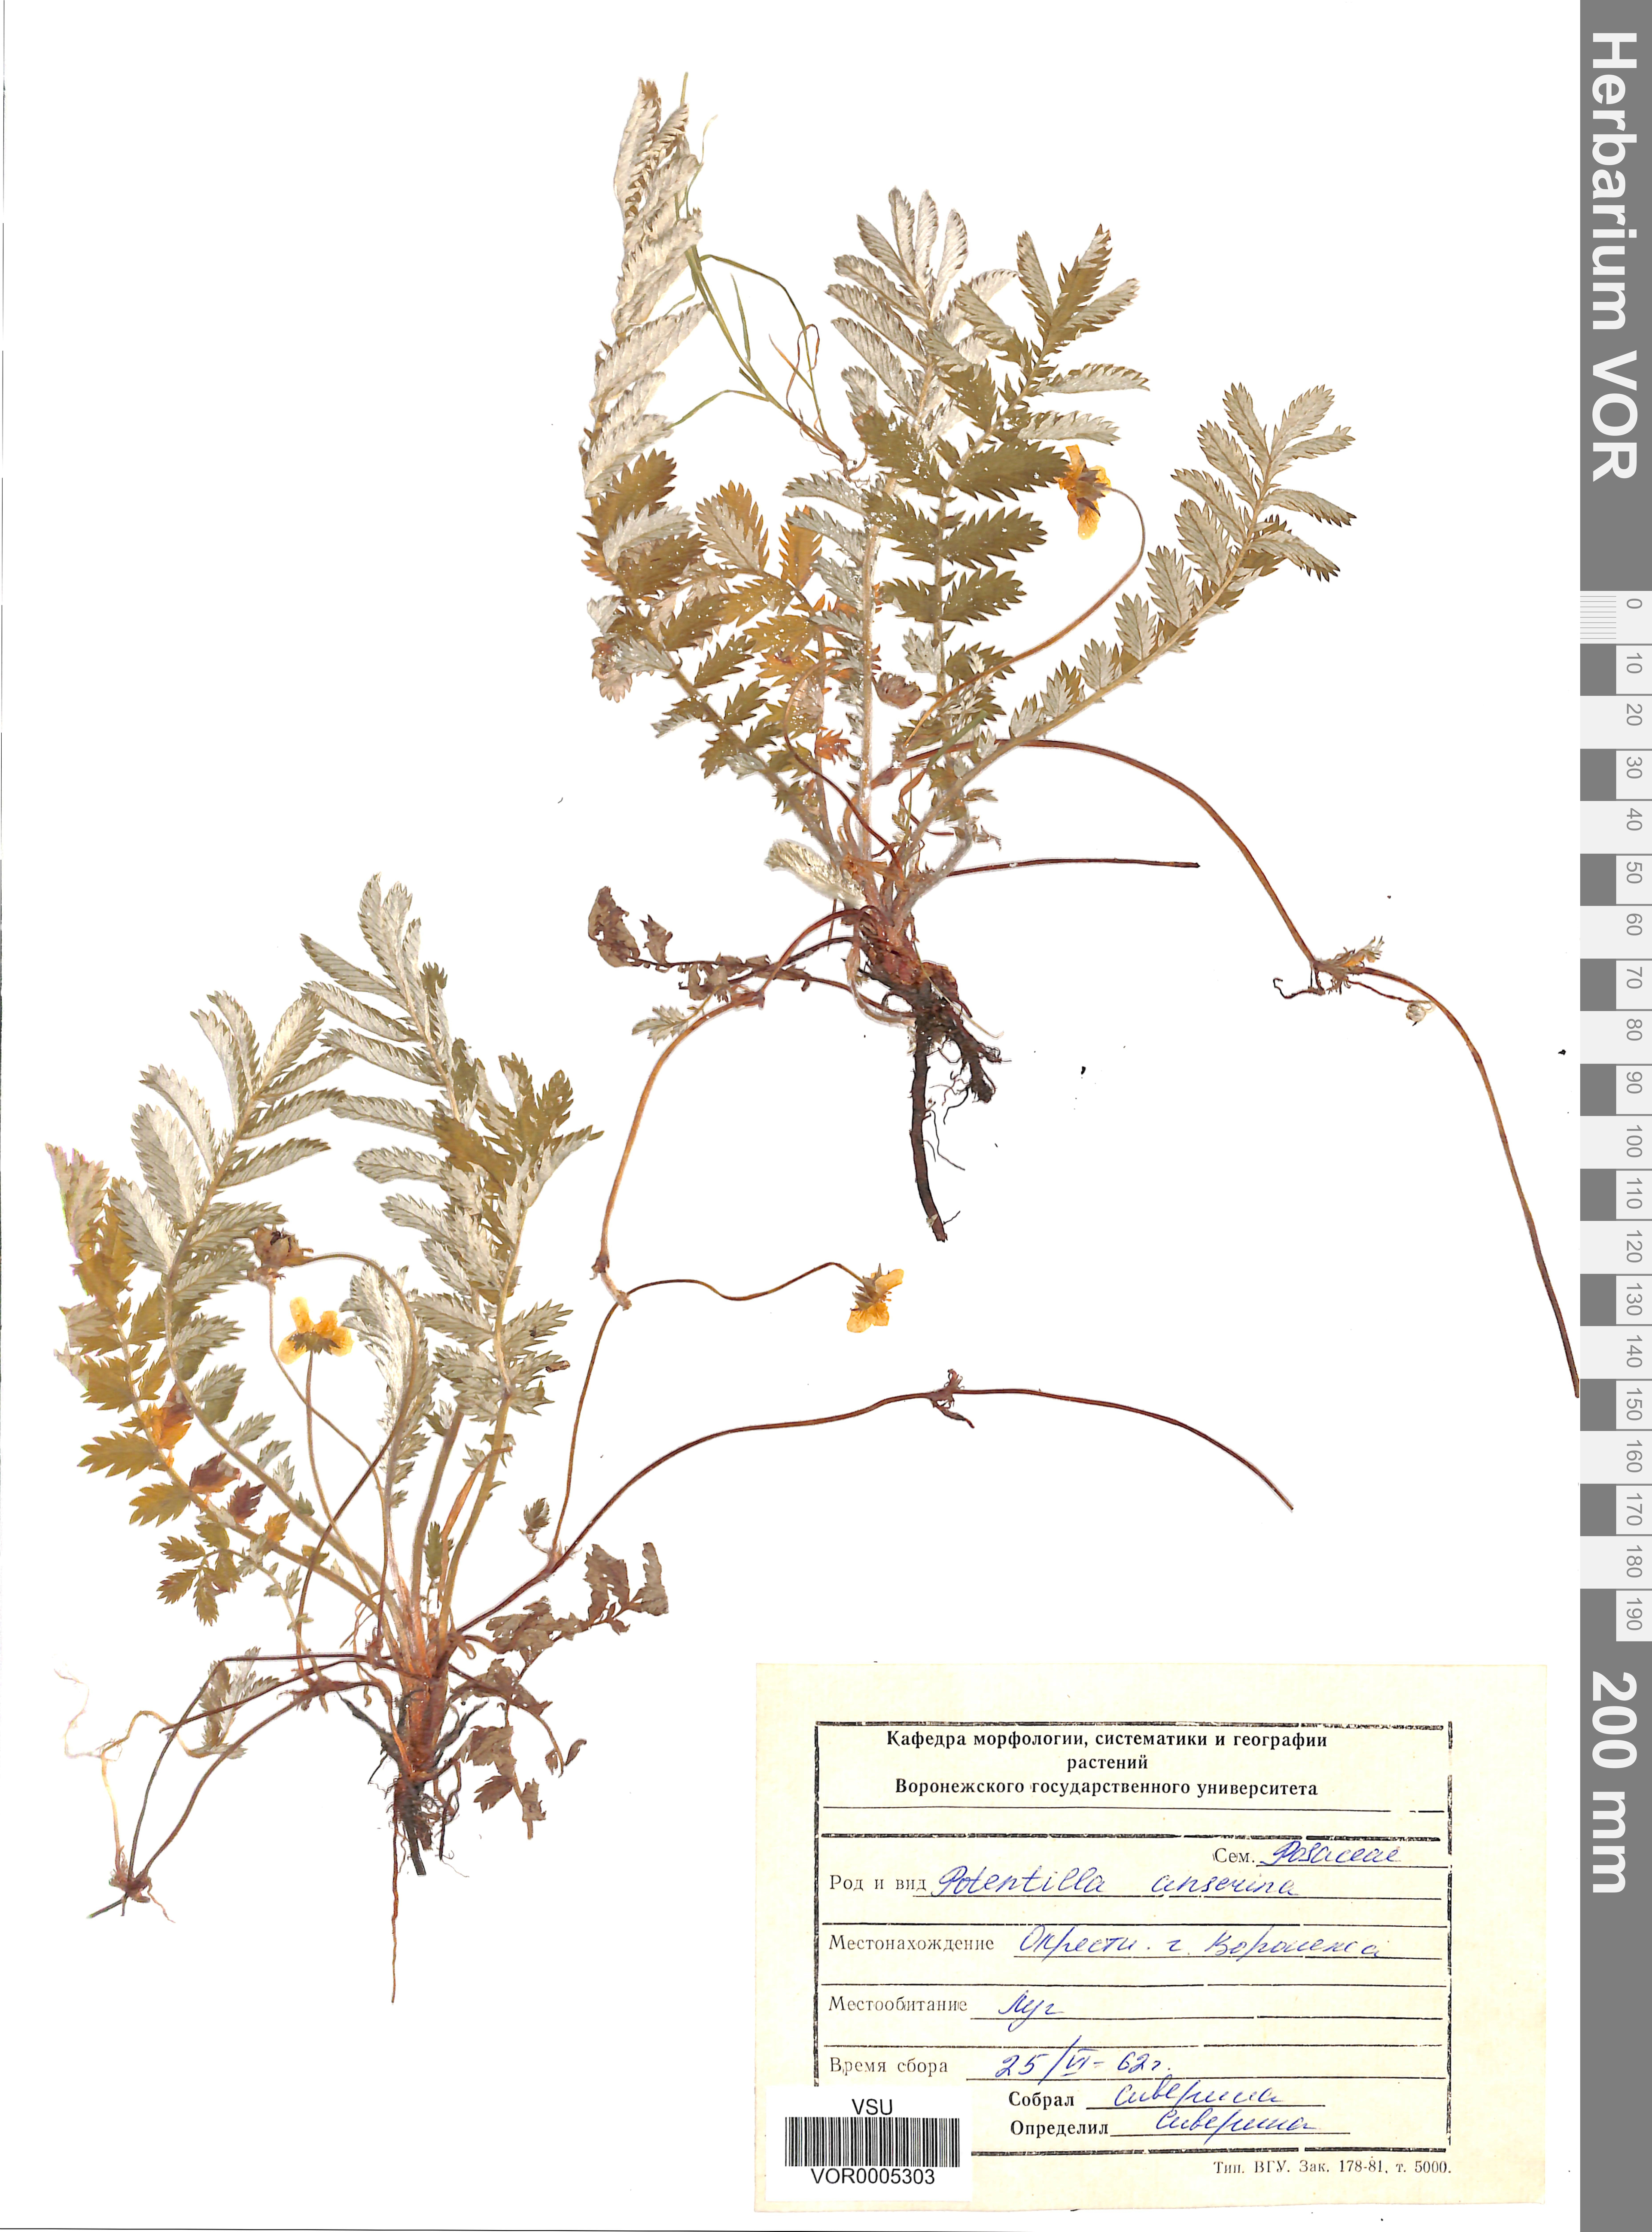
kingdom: Plantae
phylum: Tracheophyta
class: Magnoliopsida
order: Rosales
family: Rosaceae
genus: Argentina
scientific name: Argentina anserina
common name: Common silverweed
